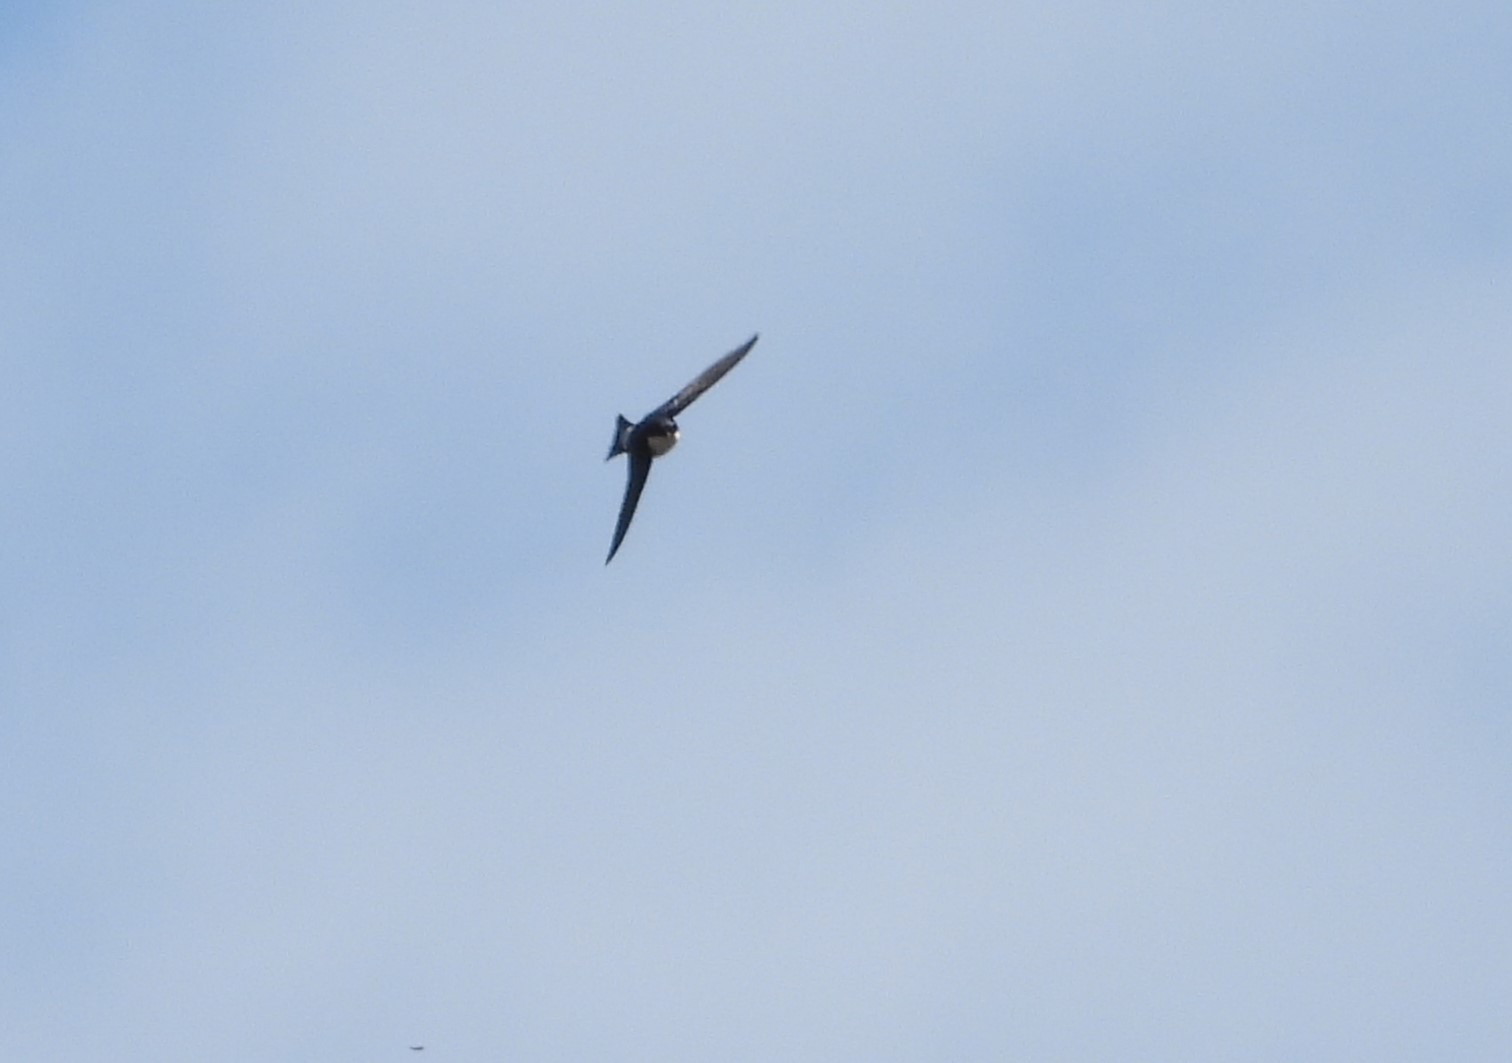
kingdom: Animalia
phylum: Chordata
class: Aves
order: Passeriformes
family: Hirundinidae
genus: Delichon
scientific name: Delichon urbicum
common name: Bysvale
